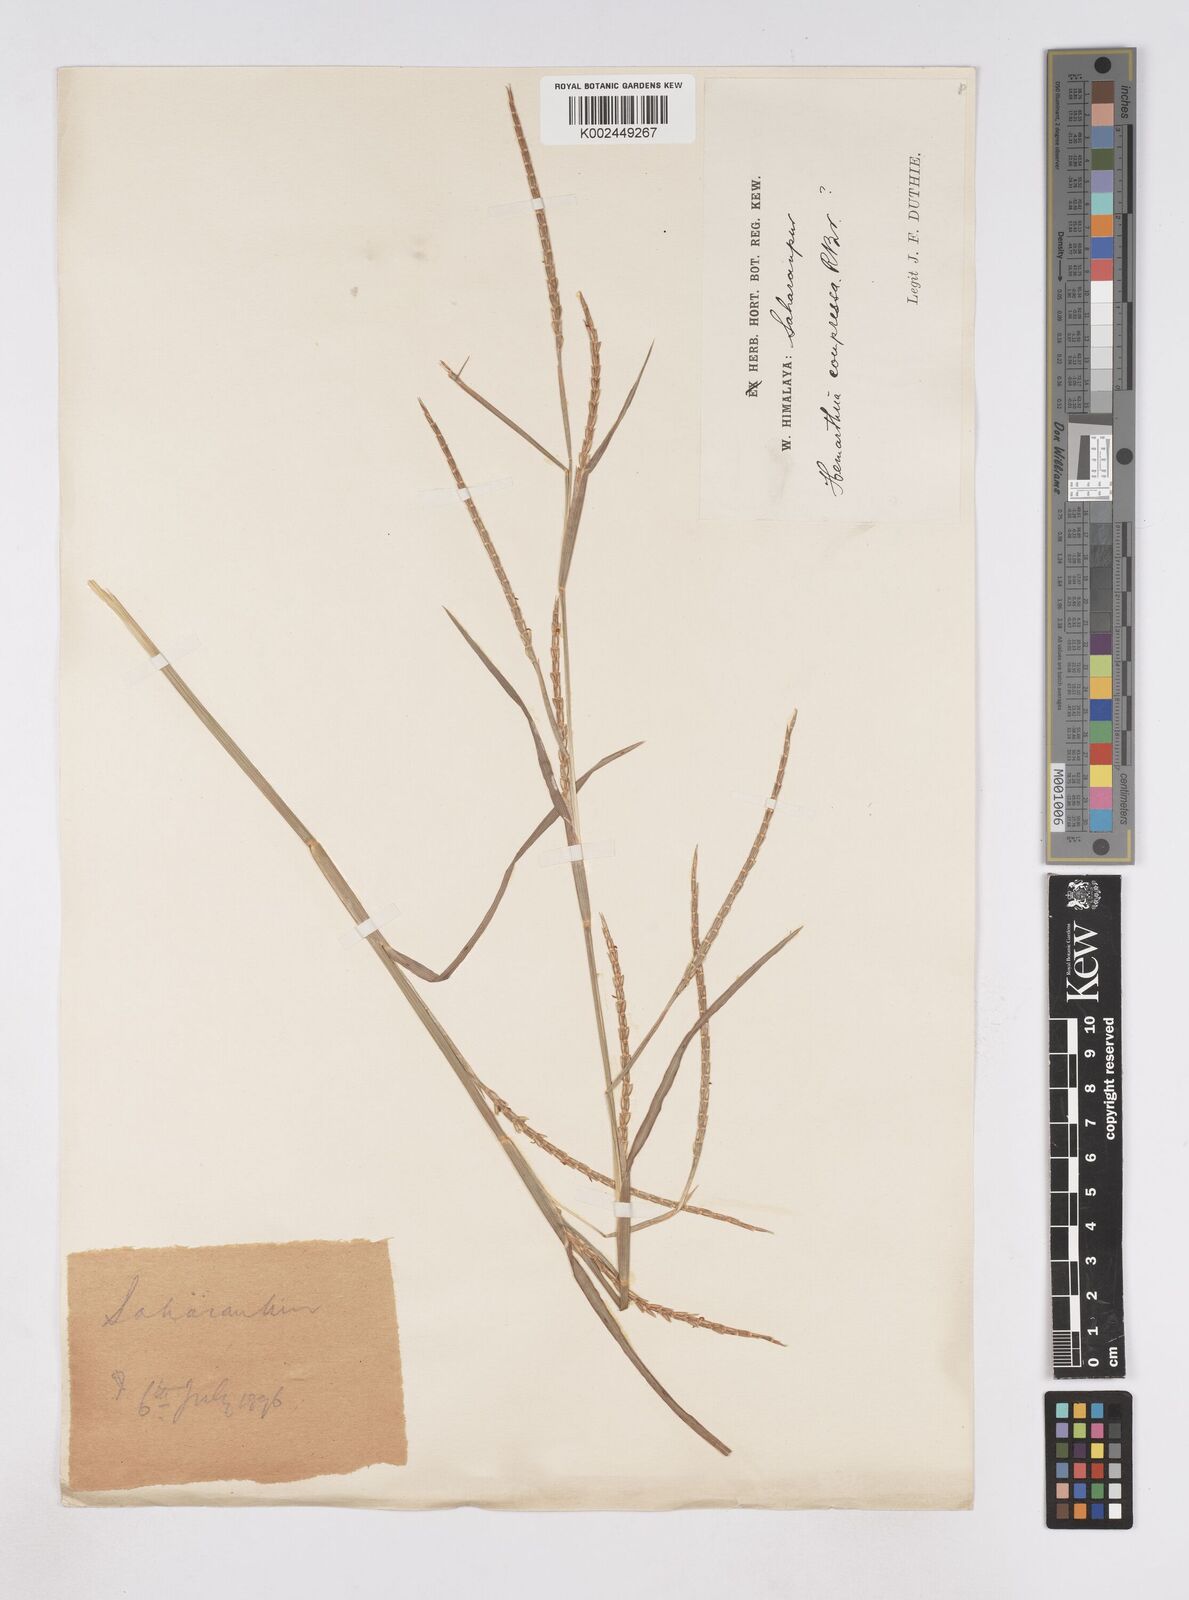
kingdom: Plantae
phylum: Tracheophyta
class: Liliopsida
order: Poales
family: Poaceae
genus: Hemarthria
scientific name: Hemarthria compressa
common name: Whip grass
